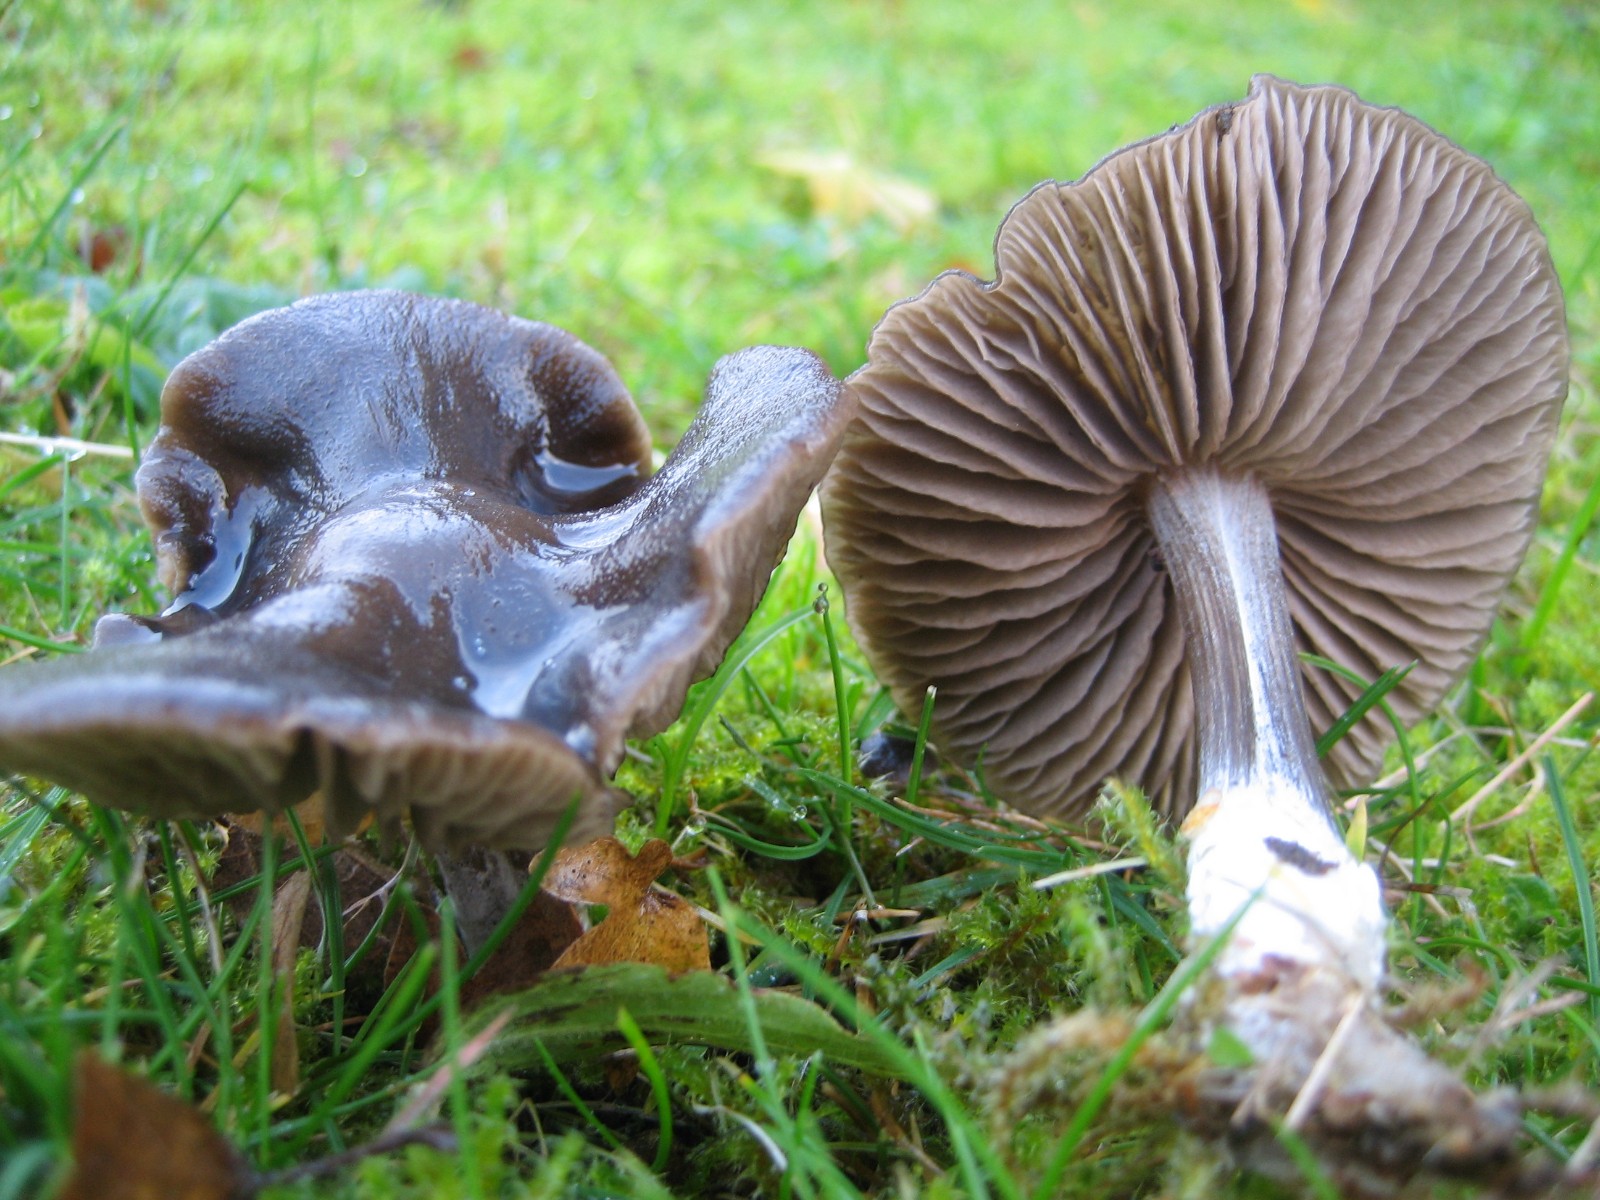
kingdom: Fungi
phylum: Basidiomycota
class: Agaricomycetes
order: Agaricales
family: Entolomataceae
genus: Entoloma
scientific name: Entoloma
